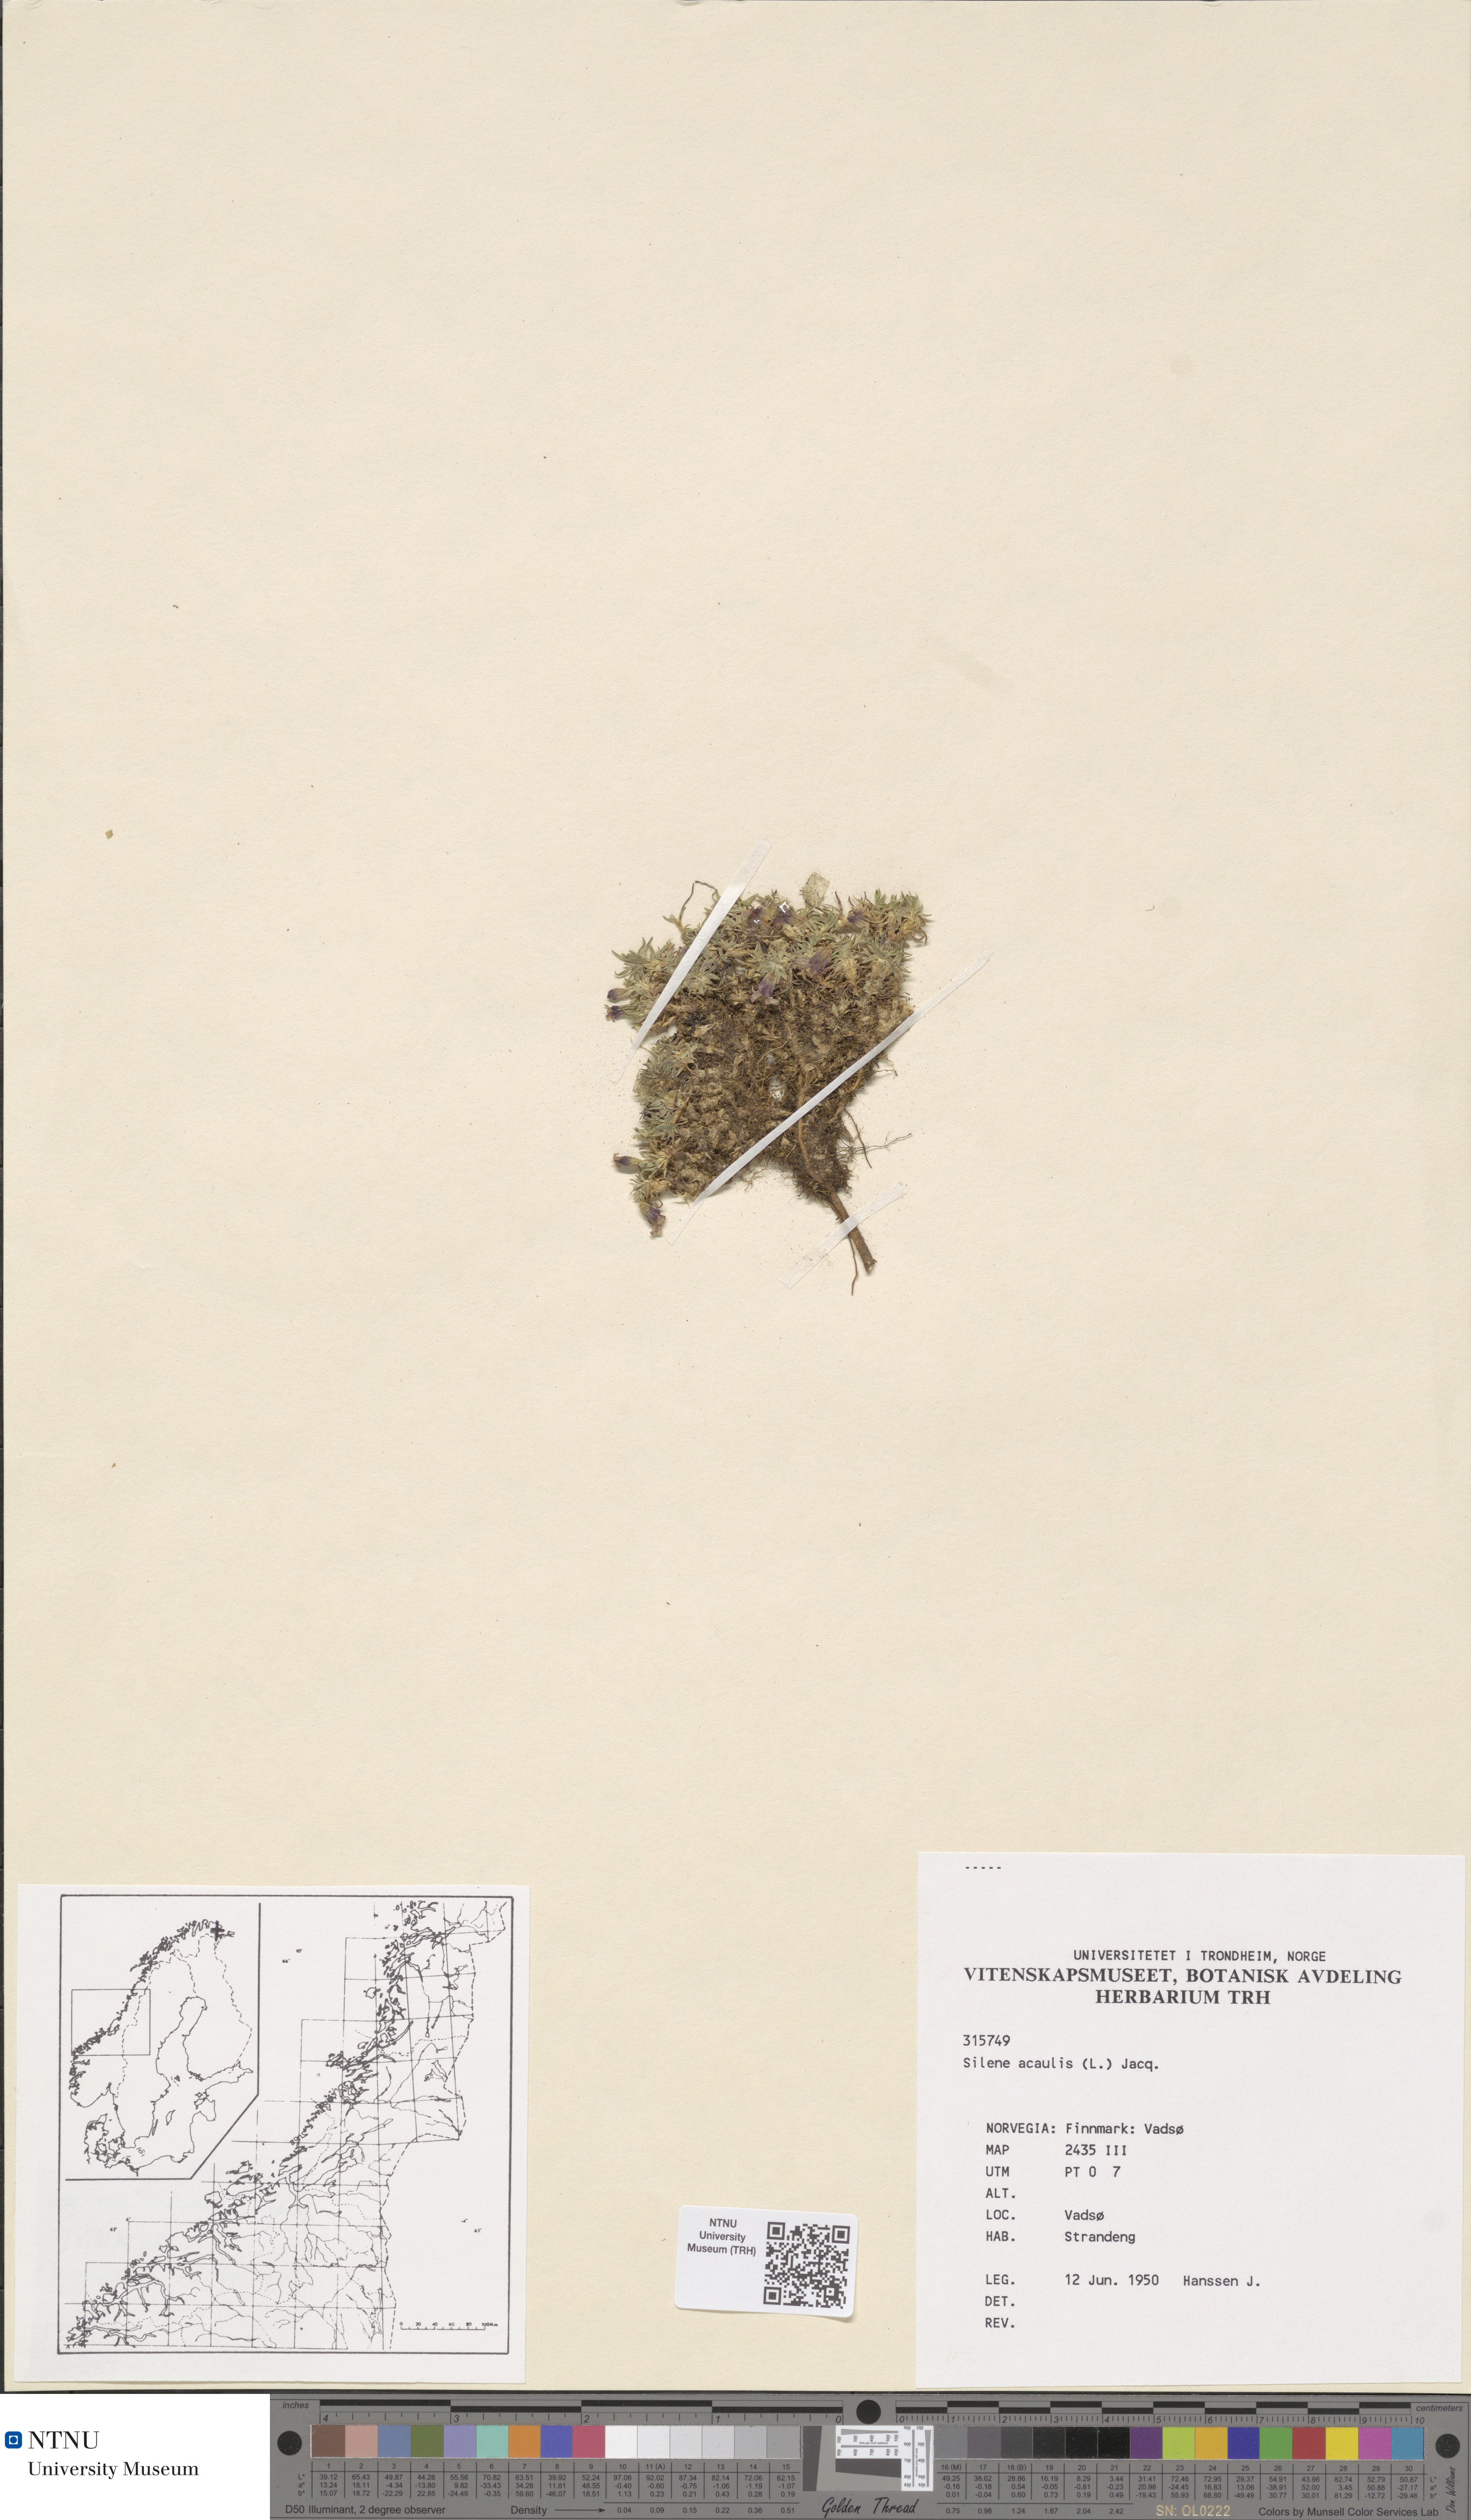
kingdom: Plantae
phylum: Tracheophyta
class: Magnoliopsida
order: Caryophyllales
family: Caryophyllaceae
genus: Silene
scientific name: Silene acaulis
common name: Moss campion
